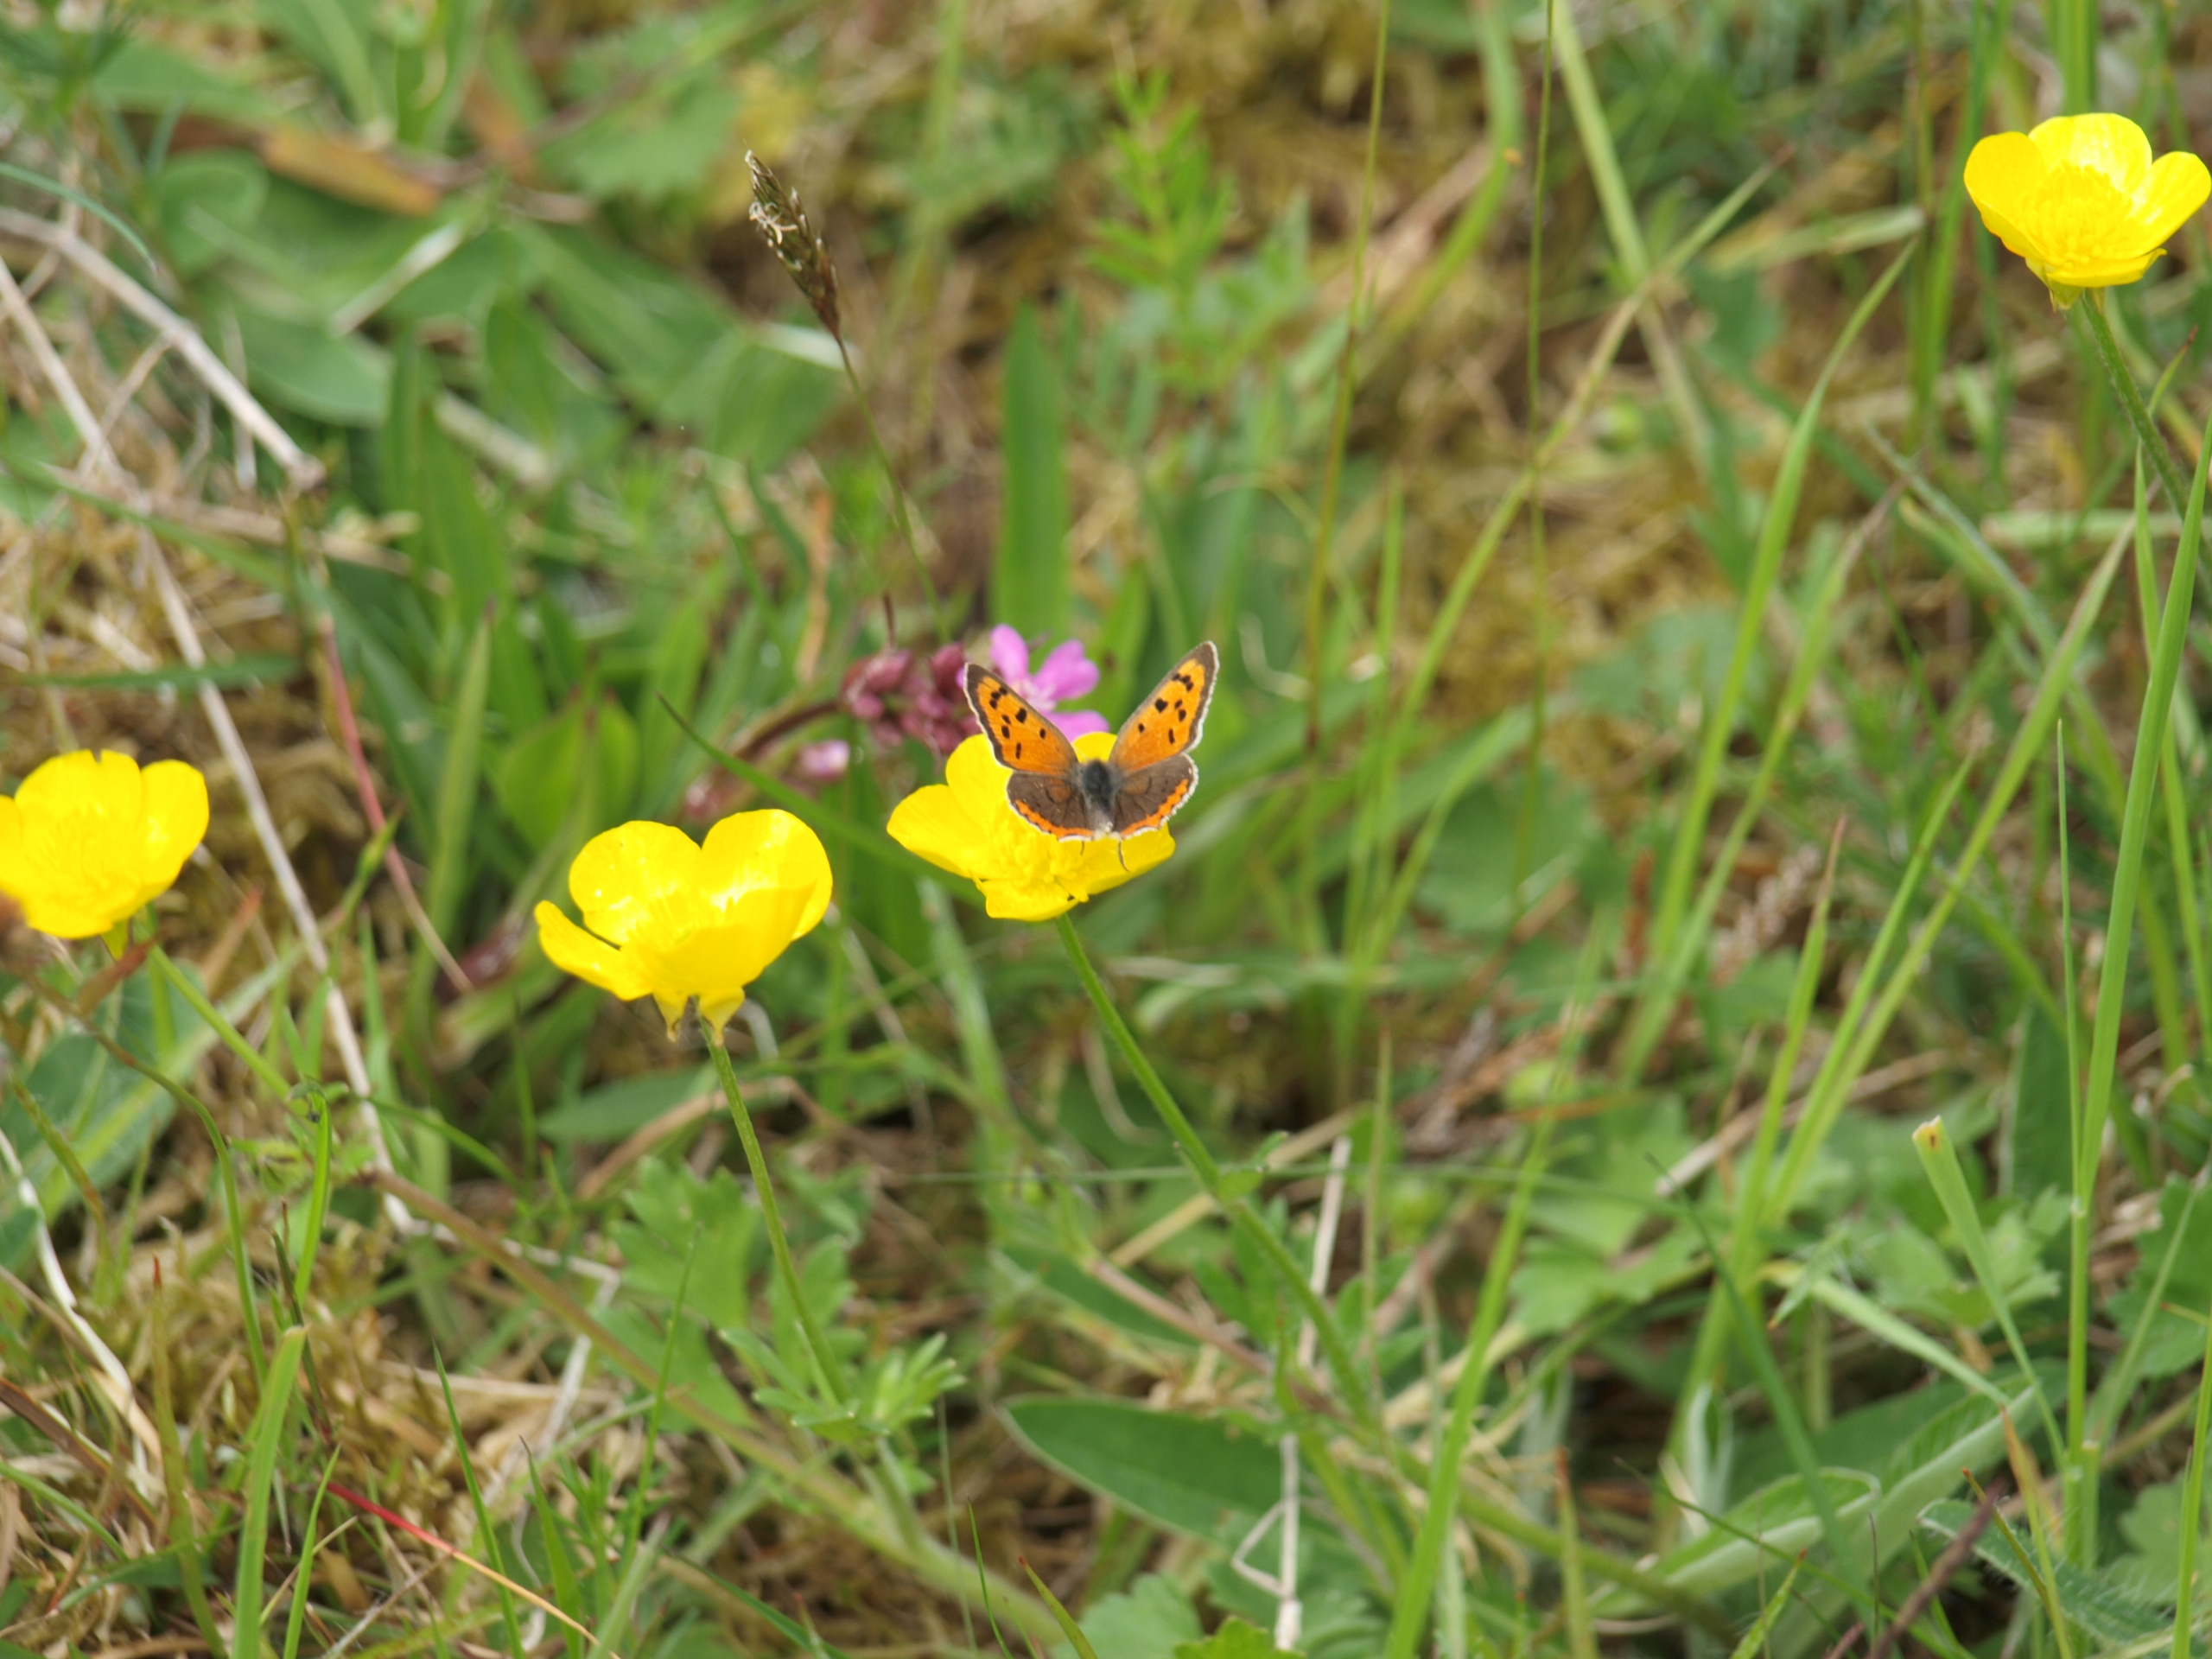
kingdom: Animalia
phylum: Arthropoda
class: Insecta
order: Lepidoptera
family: Lycaenidae
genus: Lycaena
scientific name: Lycaena phlaeas
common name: Lille ildfugl
